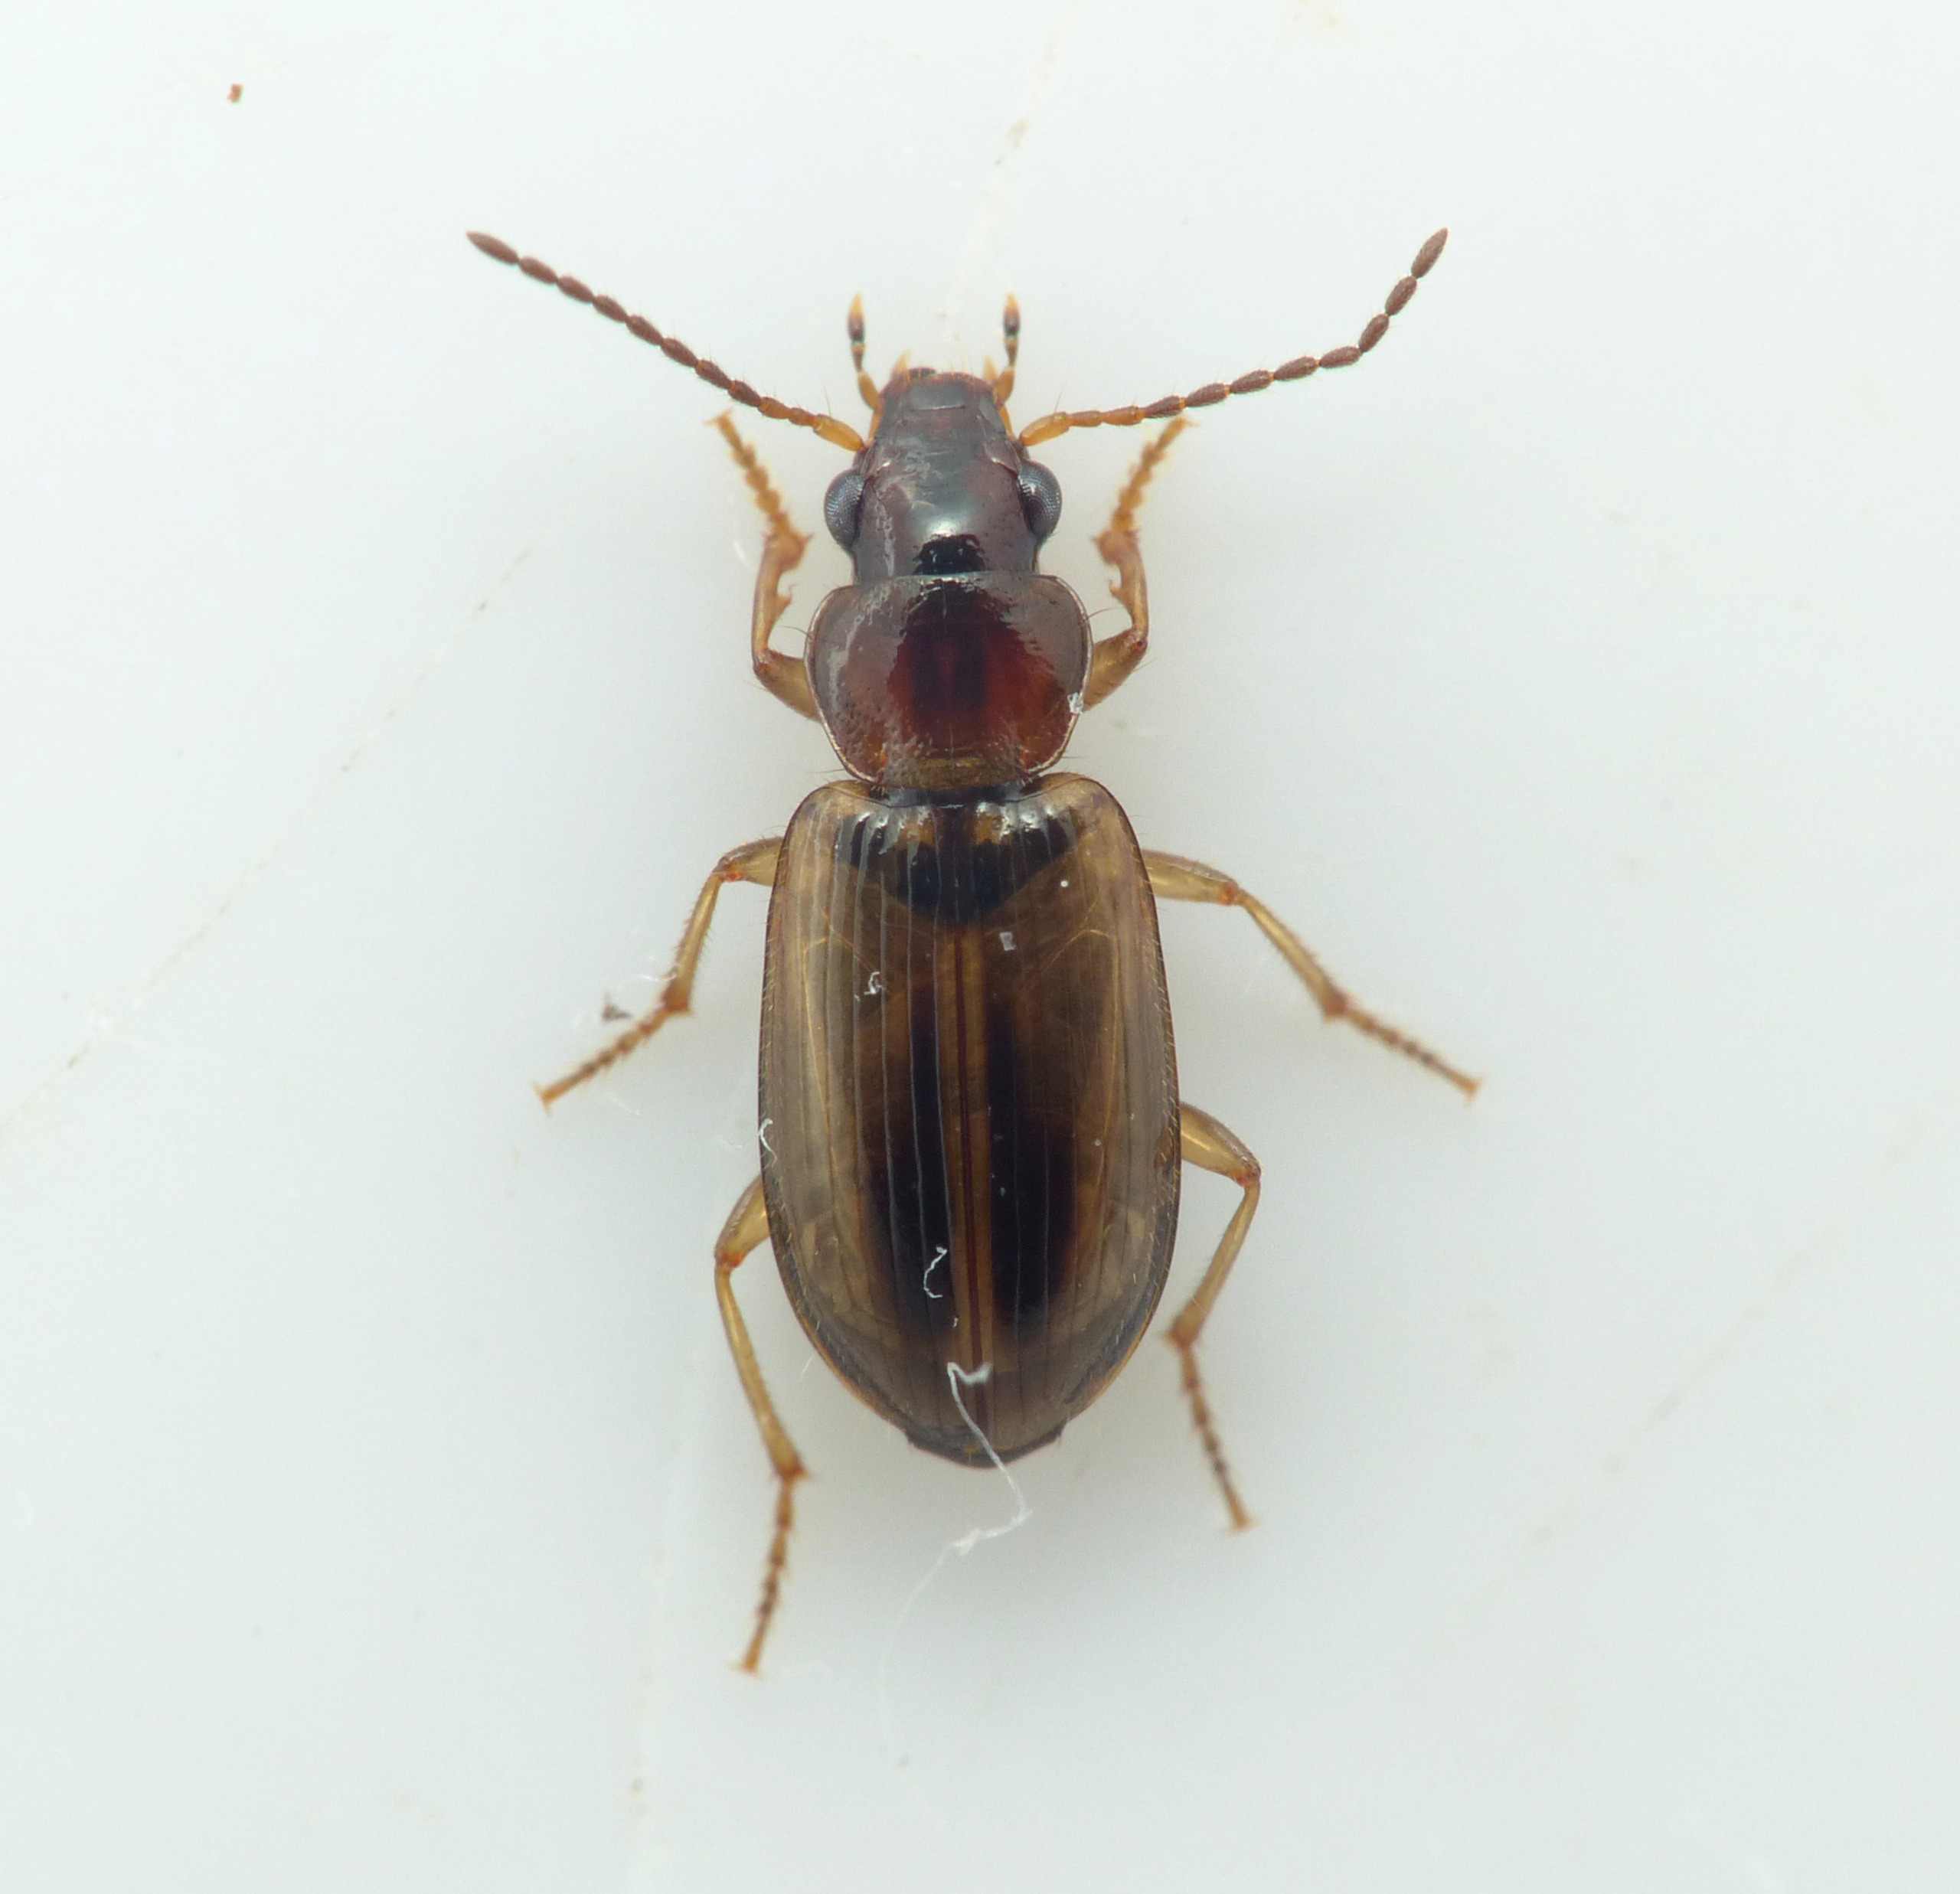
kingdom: Animalia
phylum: Arthropoda
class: Insecta
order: Coleoptera
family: Carabidae
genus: Dicheirotrichus
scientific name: Dicheirotrichus placidus
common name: Kærvinterløber
